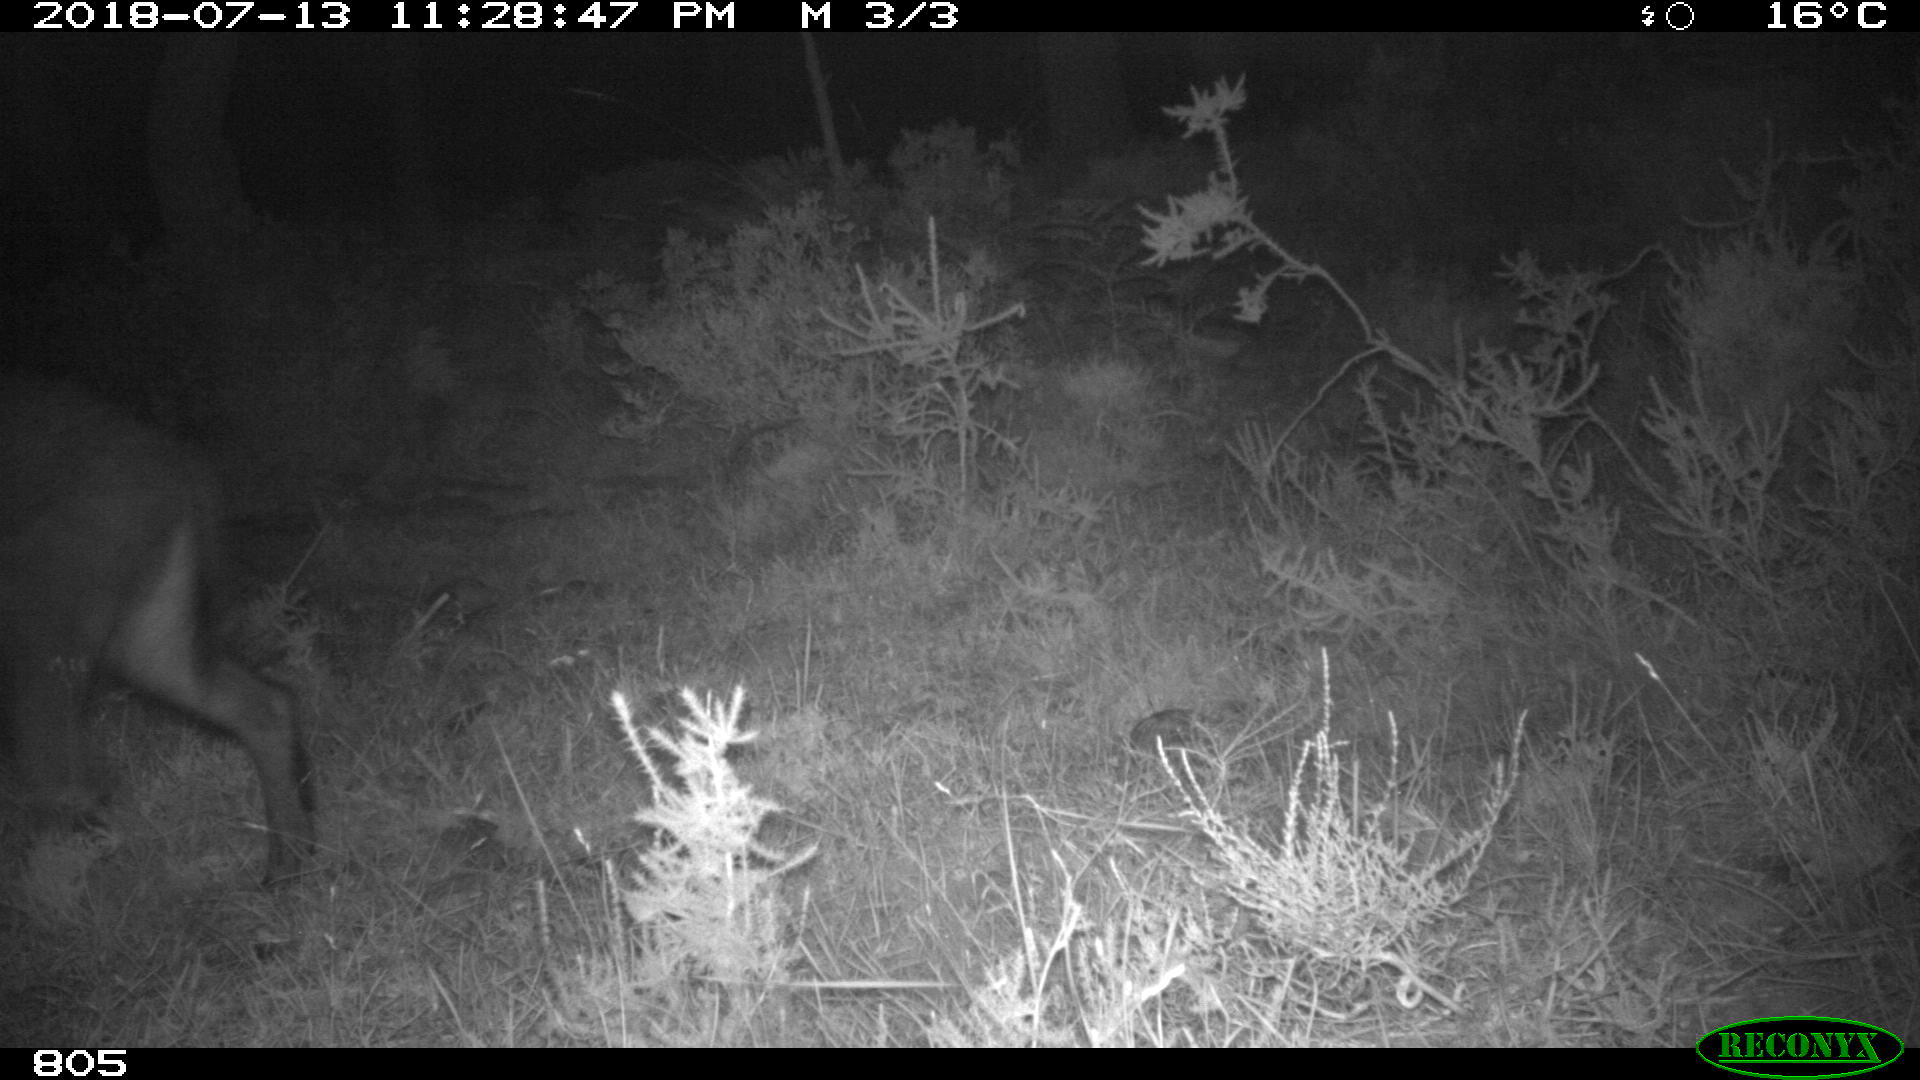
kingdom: Animalia
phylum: Chordata
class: Mammalia
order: Artiodactyla
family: Suidae
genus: Sus
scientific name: Sus scrofa
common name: Wild boar
